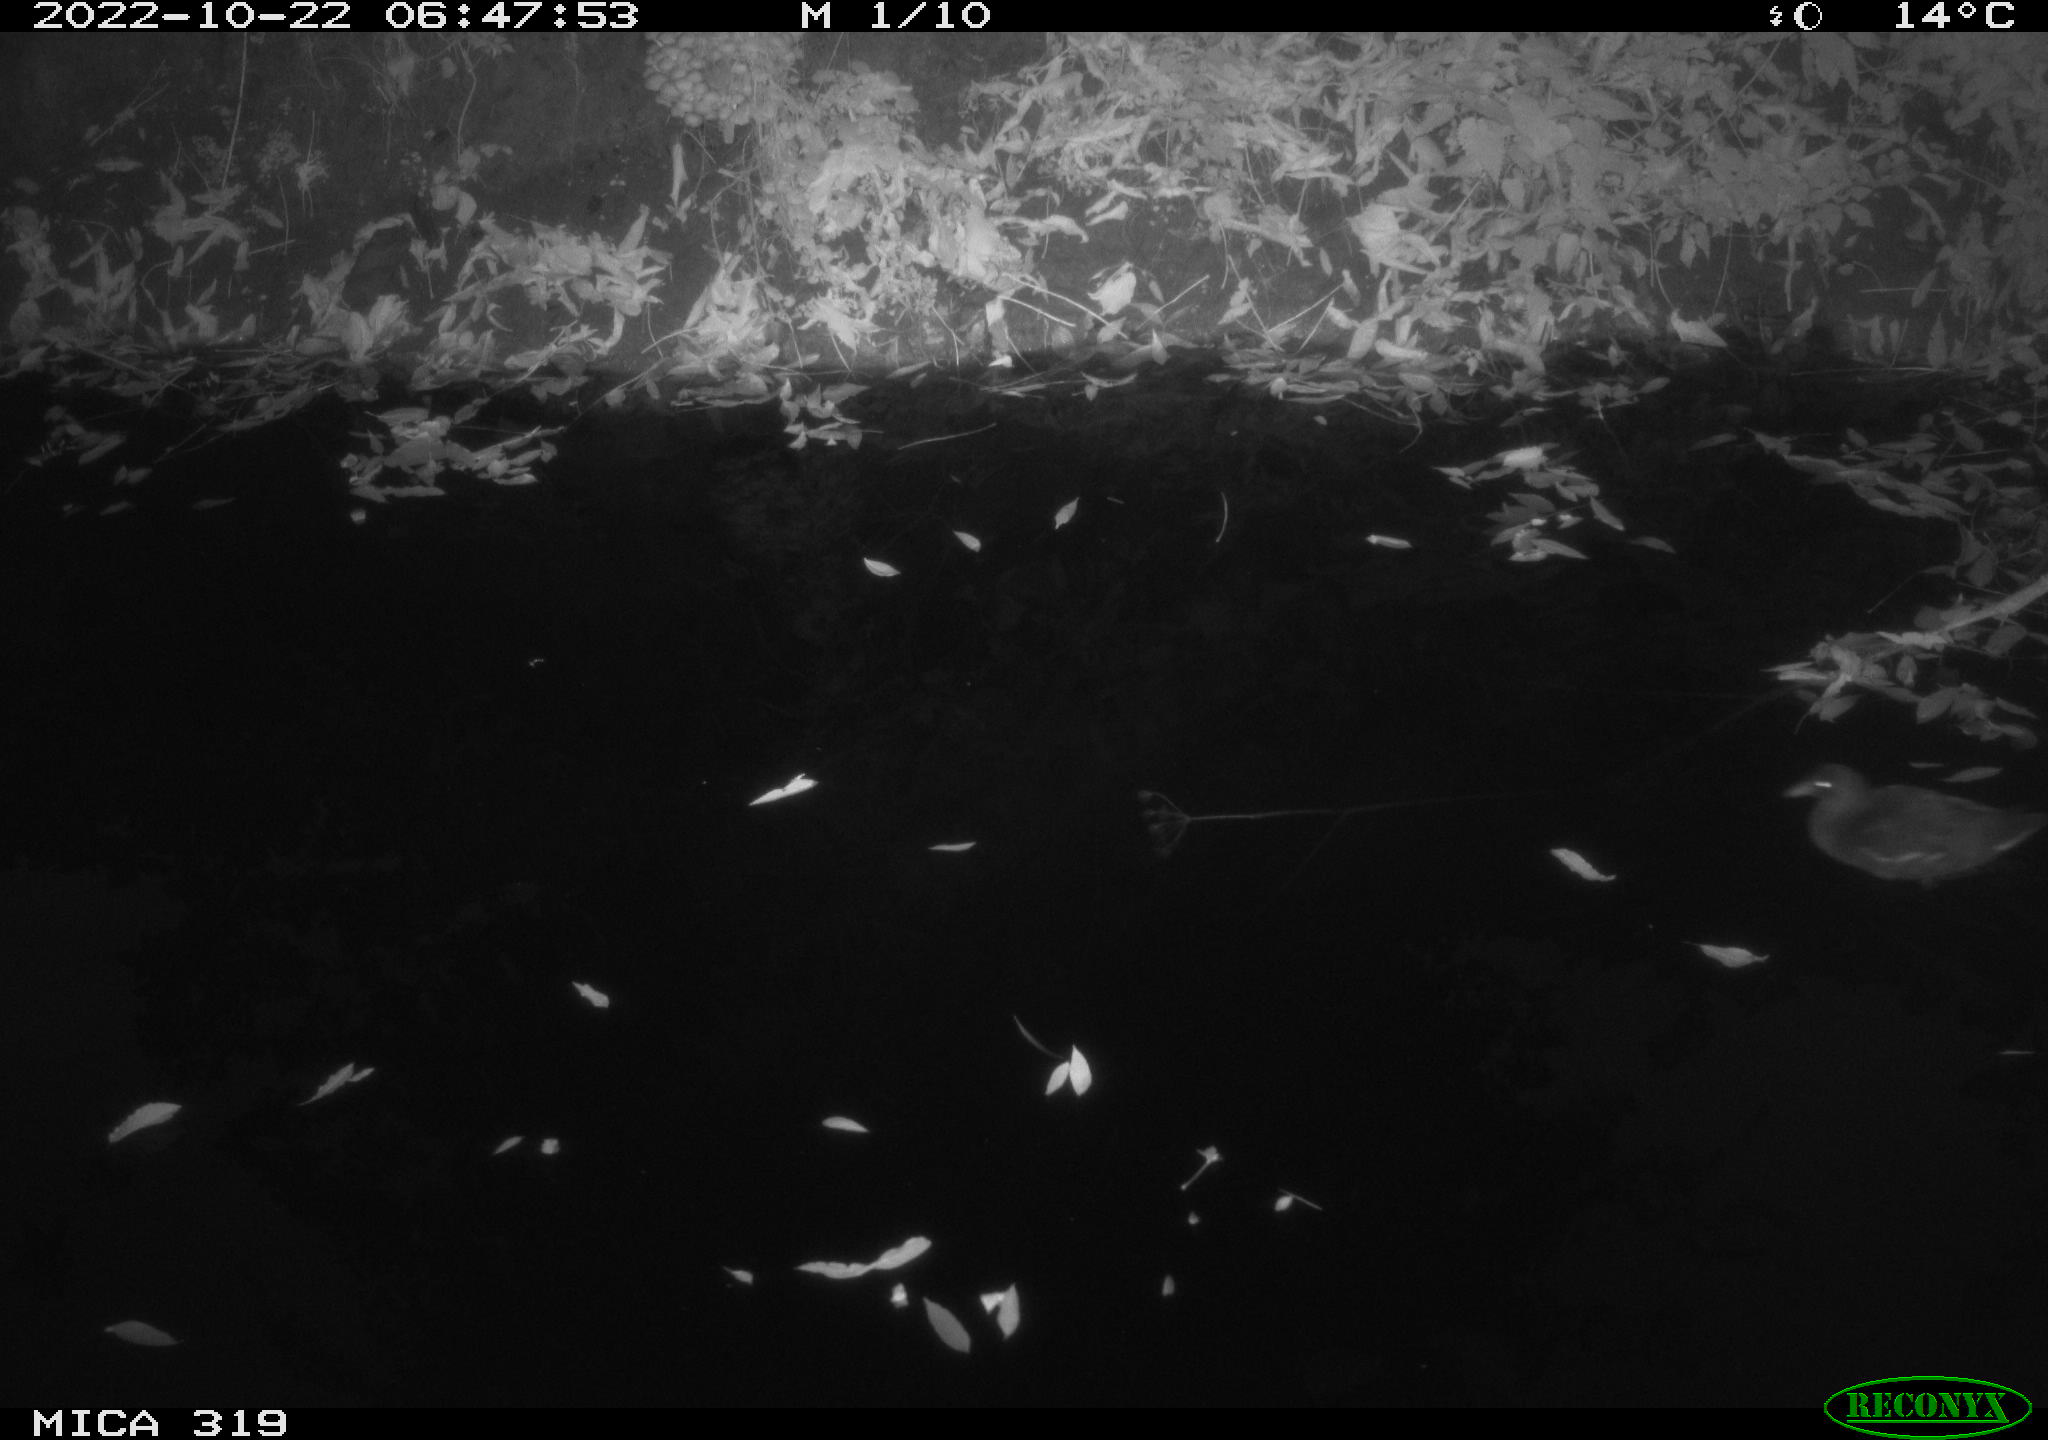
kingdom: Animalia
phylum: Chordata
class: Aves
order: Gruiformes
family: Rallidae
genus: Gallinula
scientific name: Gallinula chloropus
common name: Common moorhen
